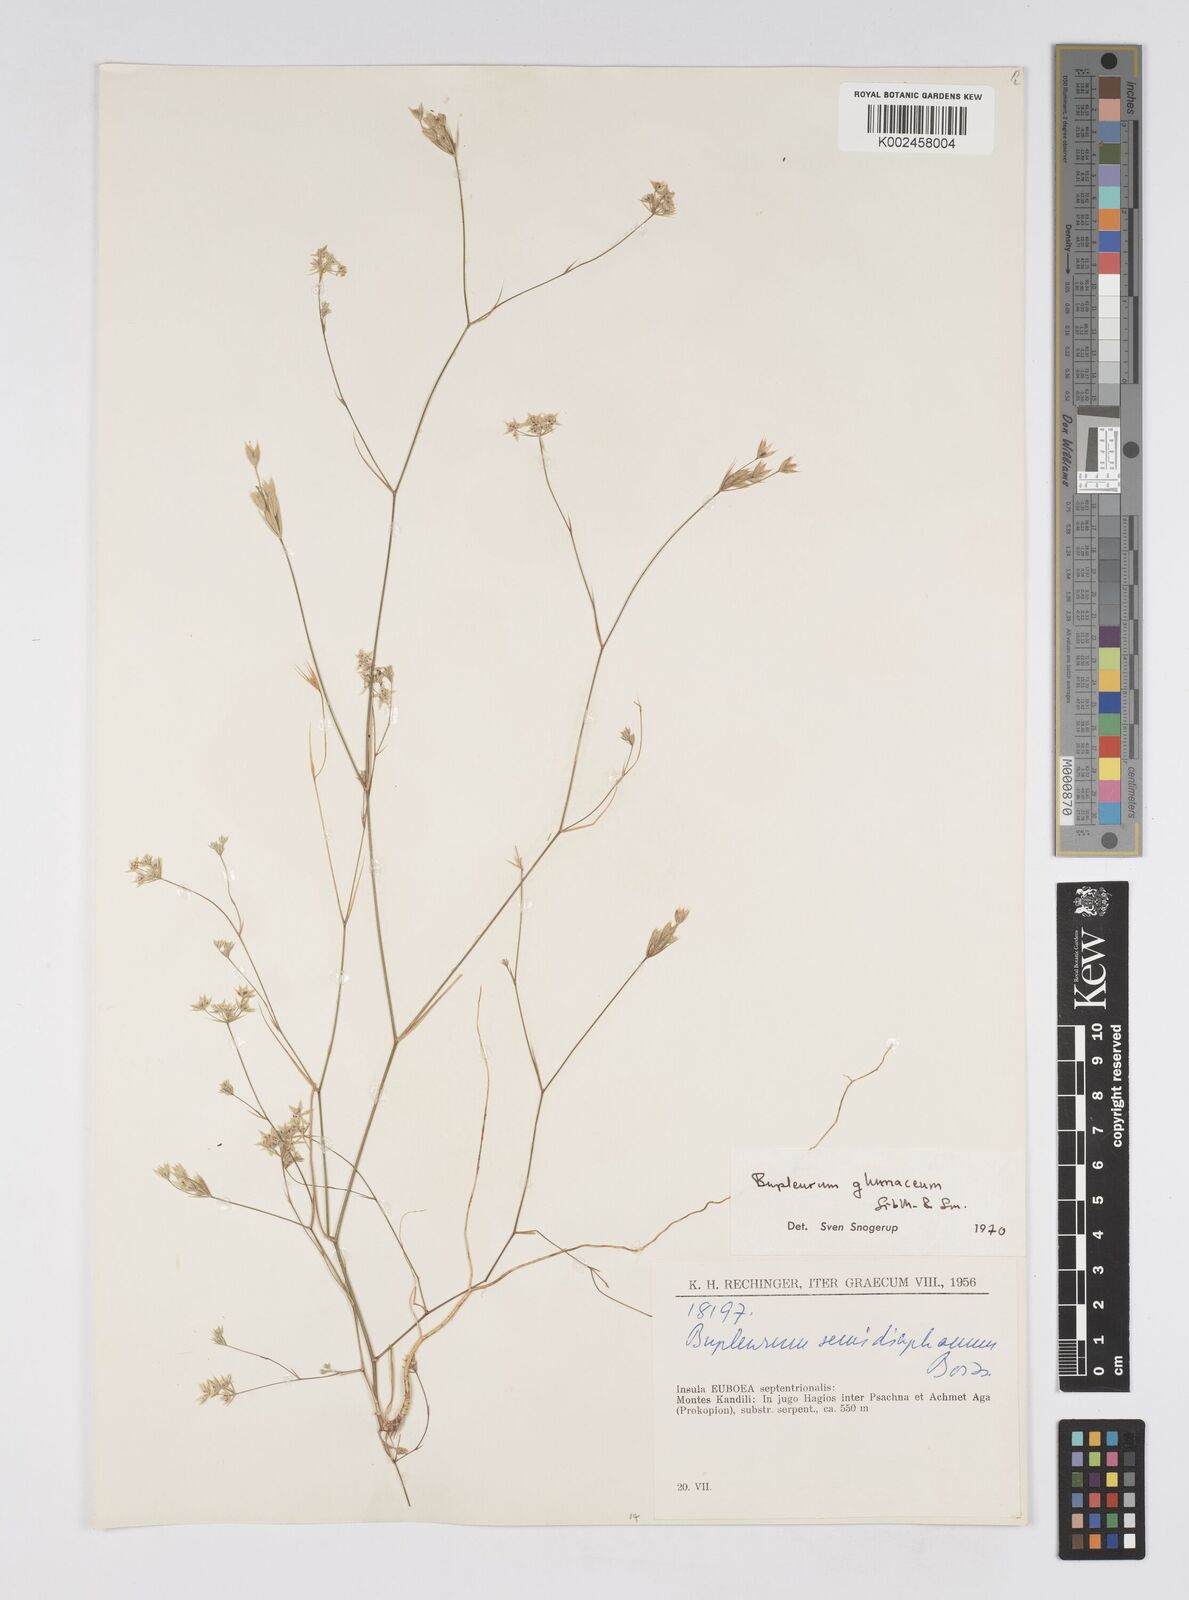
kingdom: Plantae
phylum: Tracheophyta
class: Magnoliopsida
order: Apiales
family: Apiaceae
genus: Bupleurum
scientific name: Bupleurum glumaceum
